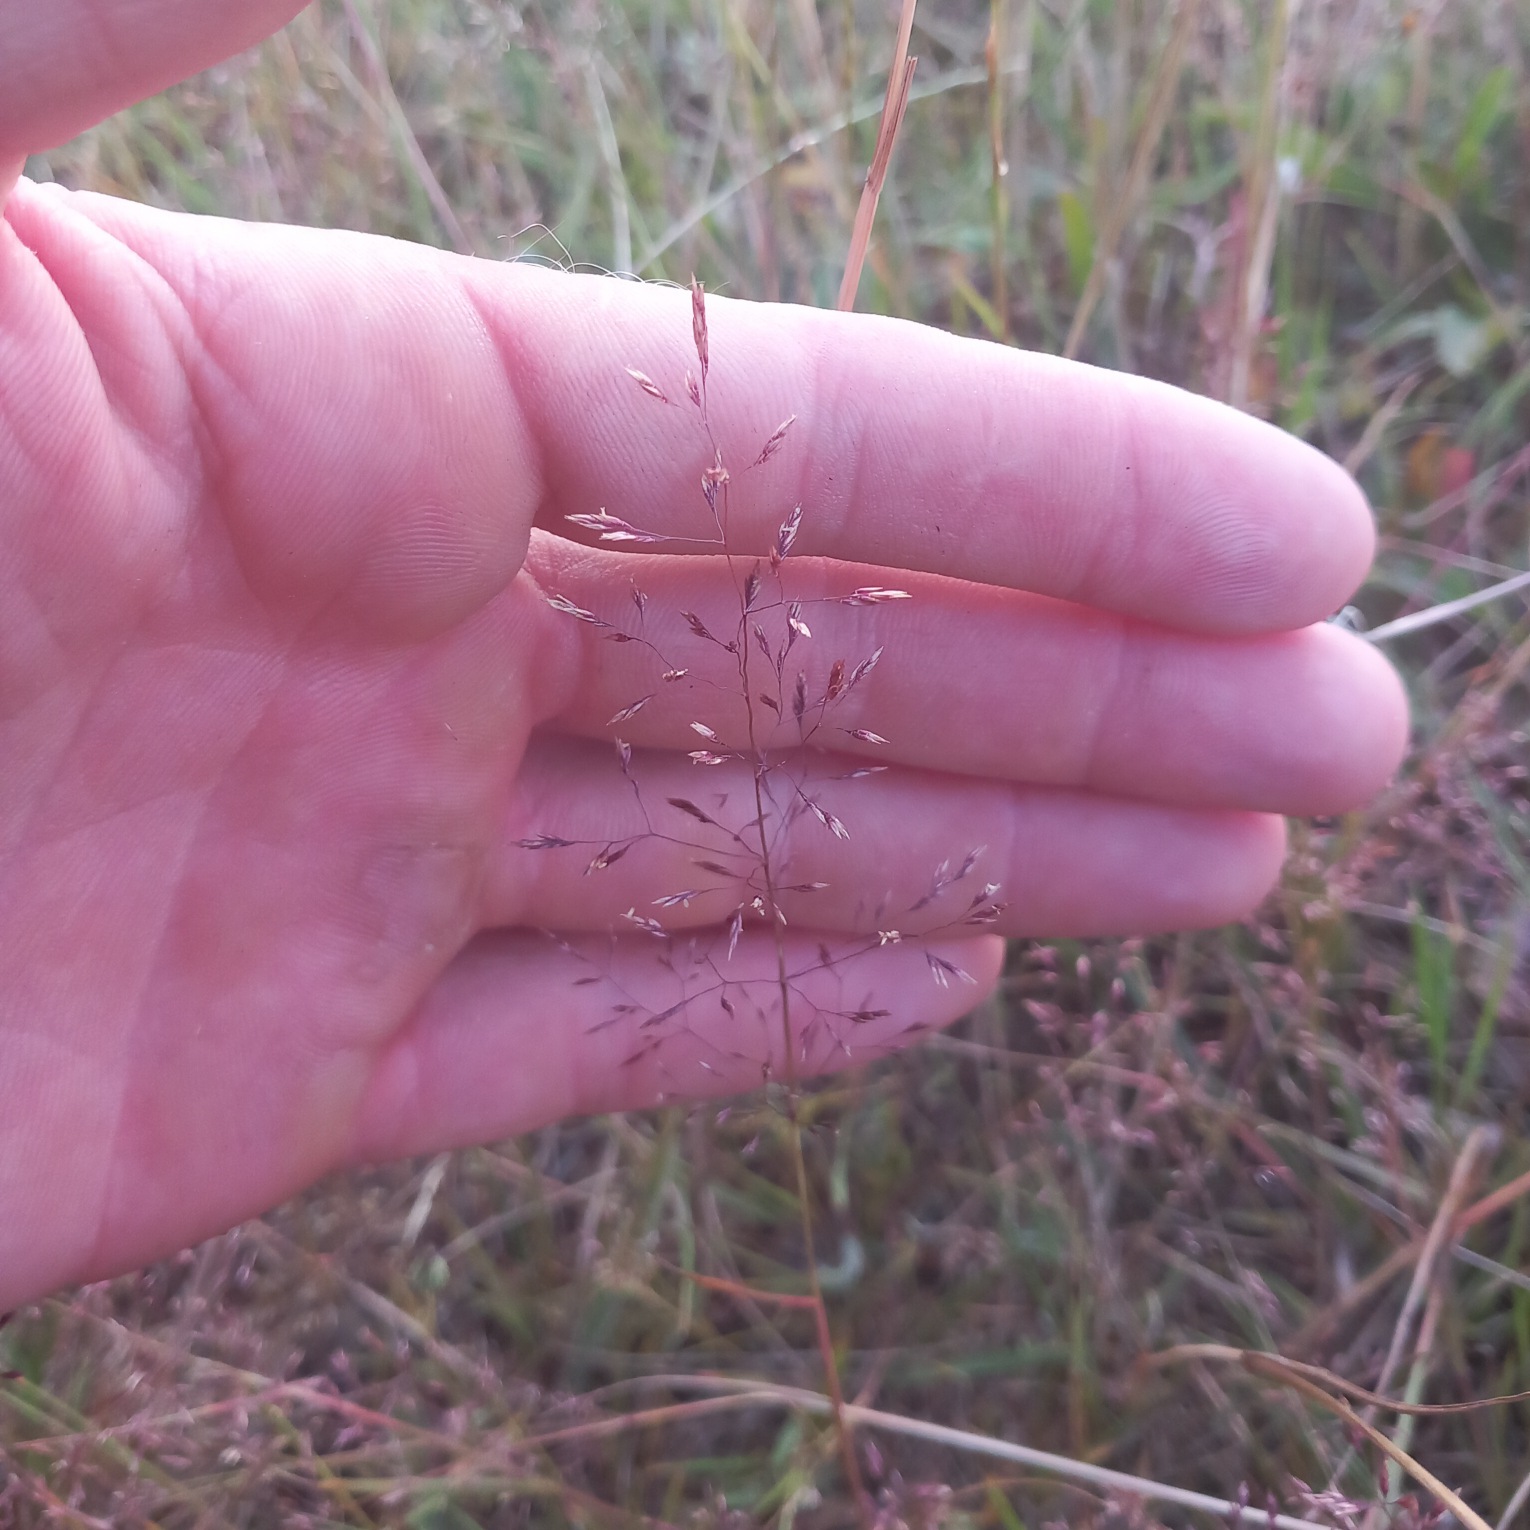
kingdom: Plantae
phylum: Tracheophyta
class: Liliopsida
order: Poales
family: Poaceae
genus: Agrostis
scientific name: Agrostis capillaris
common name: Almindelig hvene
